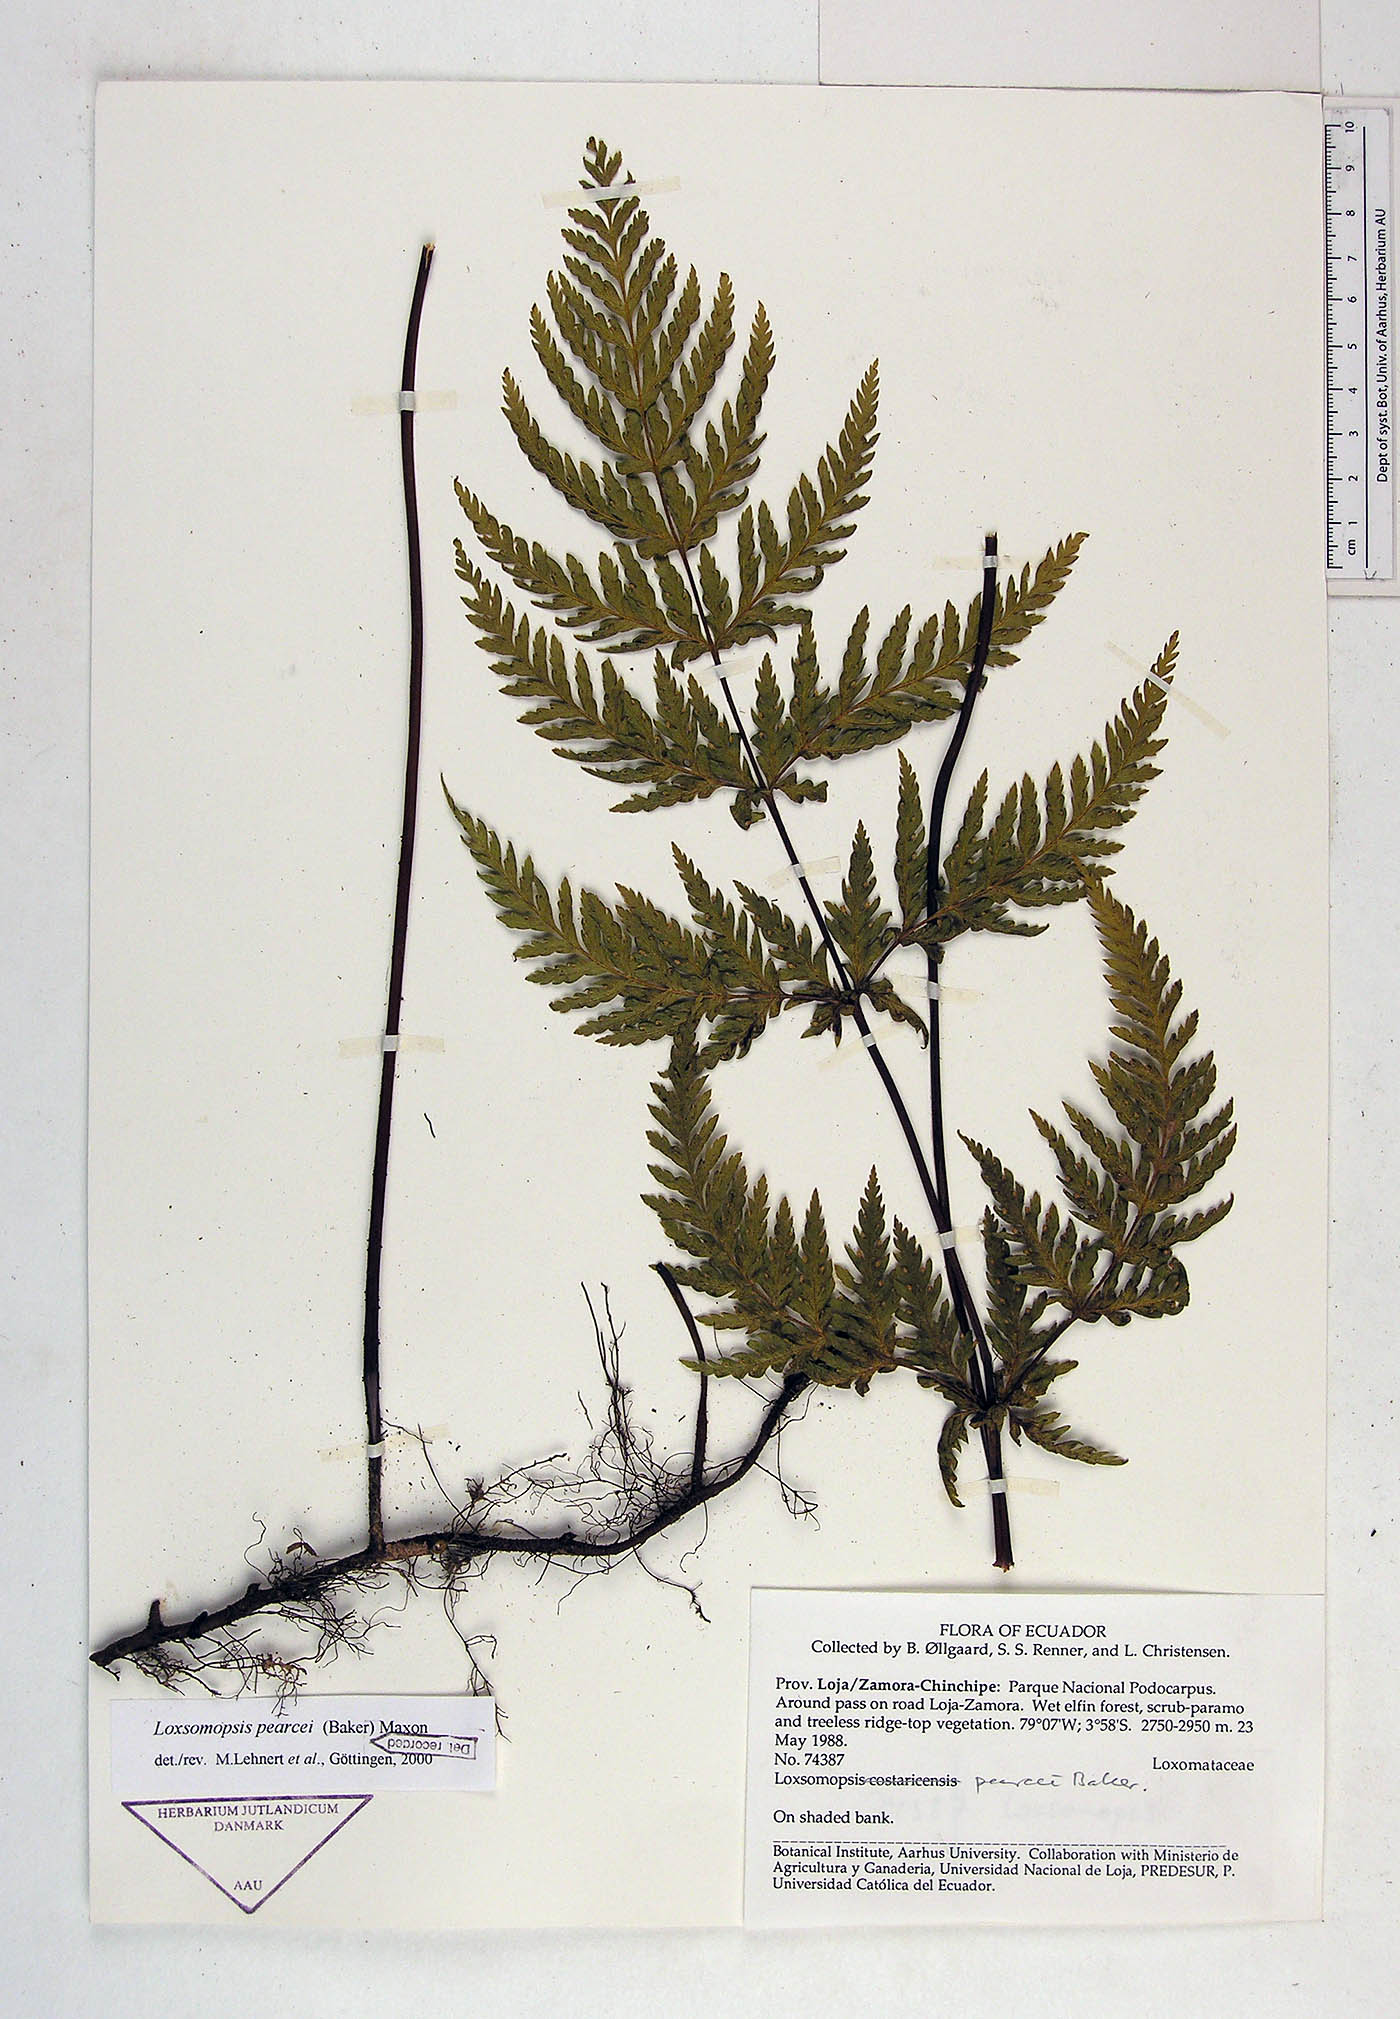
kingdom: Plantae
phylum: Tracheophyta
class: Polypodiopsida
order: Cyatheales
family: Loxsomataceae
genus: Loxsomopsis
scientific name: Loxsomopsis pearcei
